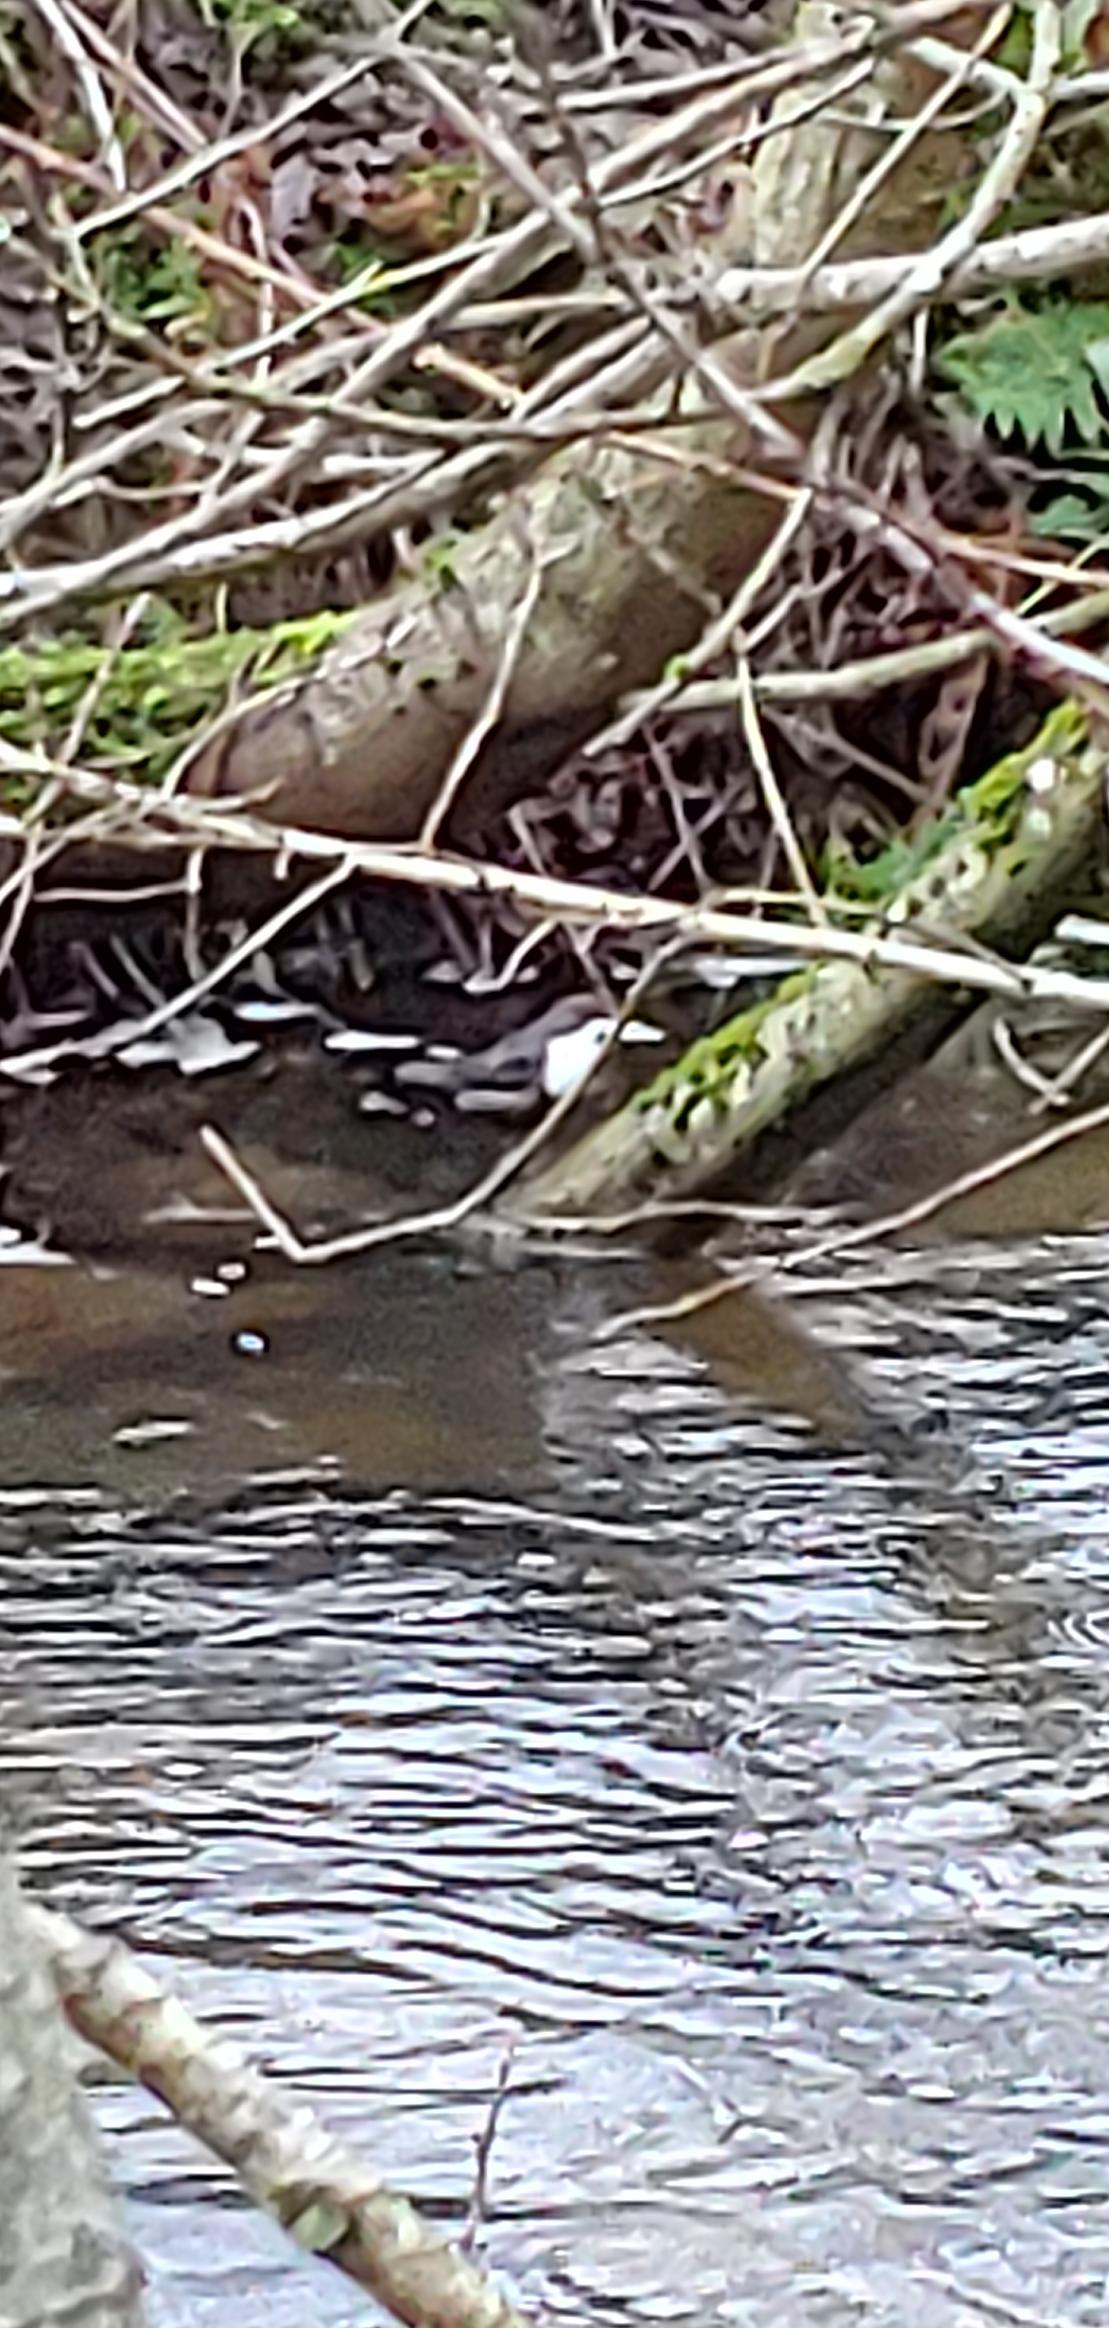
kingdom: Animalia
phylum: Chordata
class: Aves
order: Passeriformes
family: Cinclidae
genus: Cinclus
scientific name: Cinclus cinclus
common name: Vandstær
